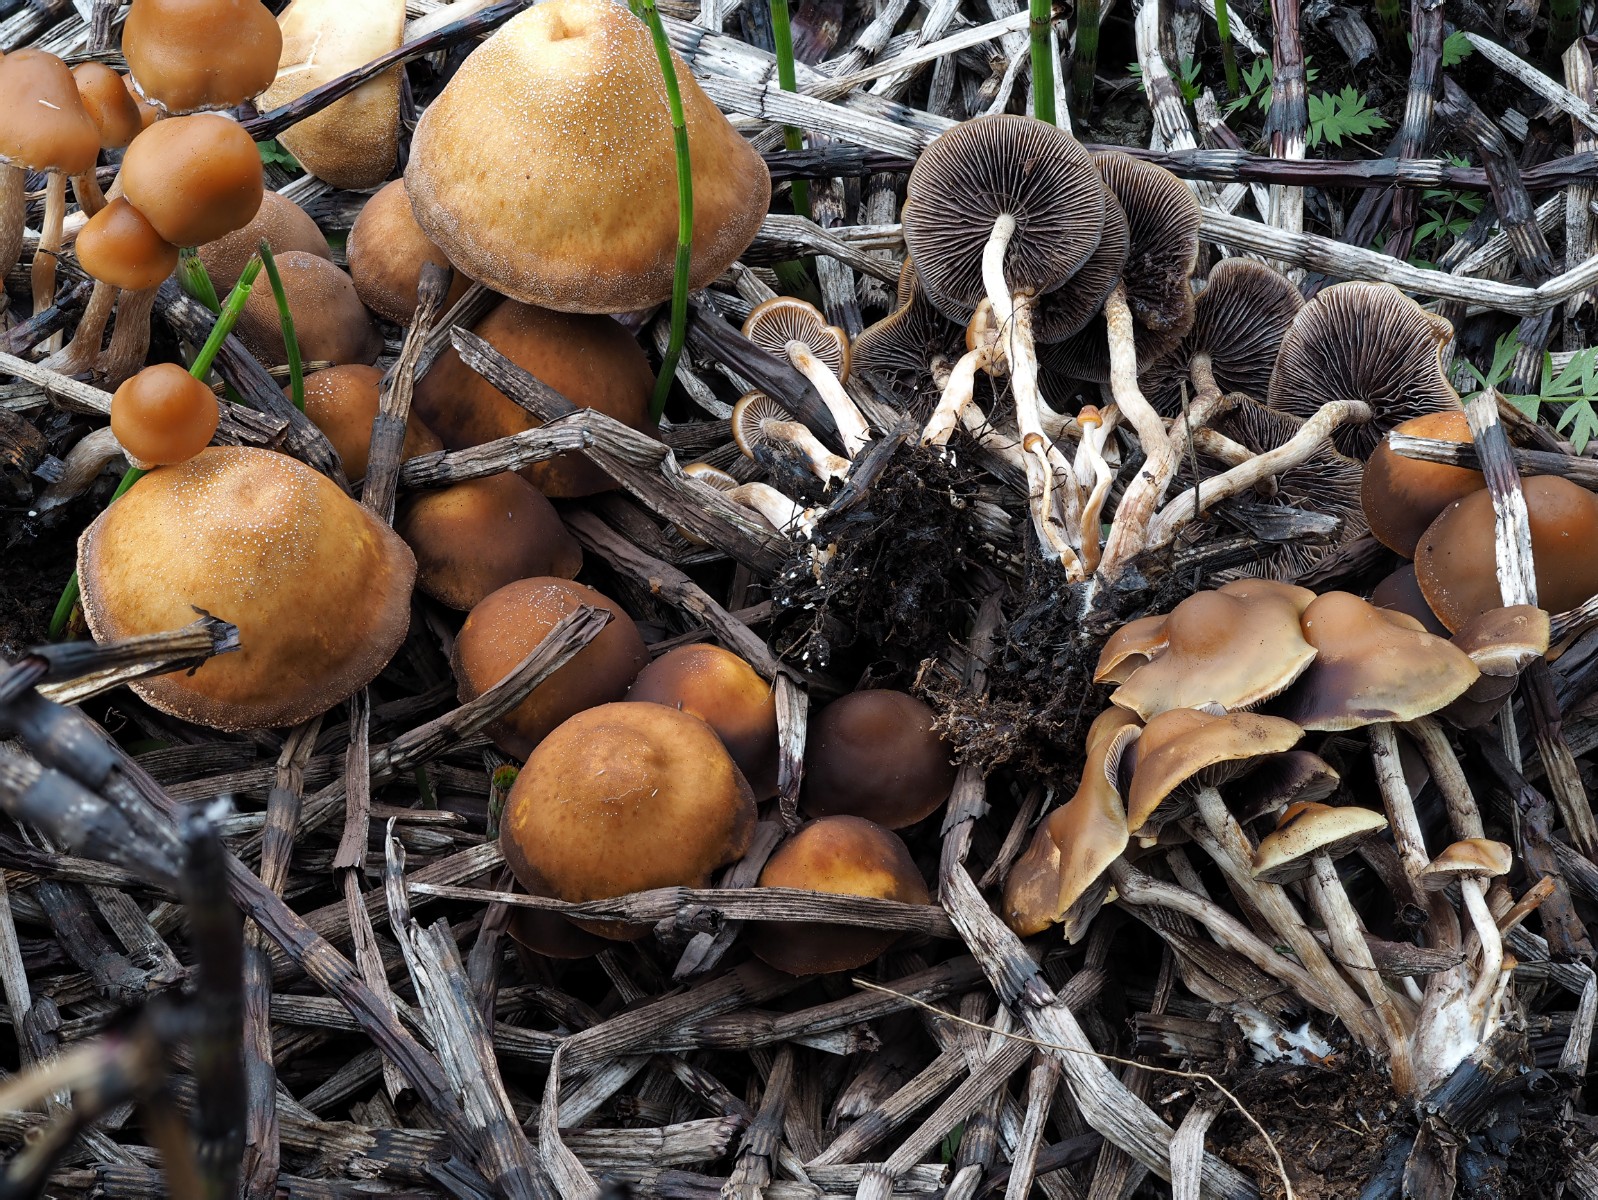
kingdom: Fungi
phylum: Basidiomycota
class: Agaricomycetes
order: Agaricales
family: Strophariaceae
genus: Hypholoma
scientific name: Hypholoma subericaeum
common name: eng-svovlhat
